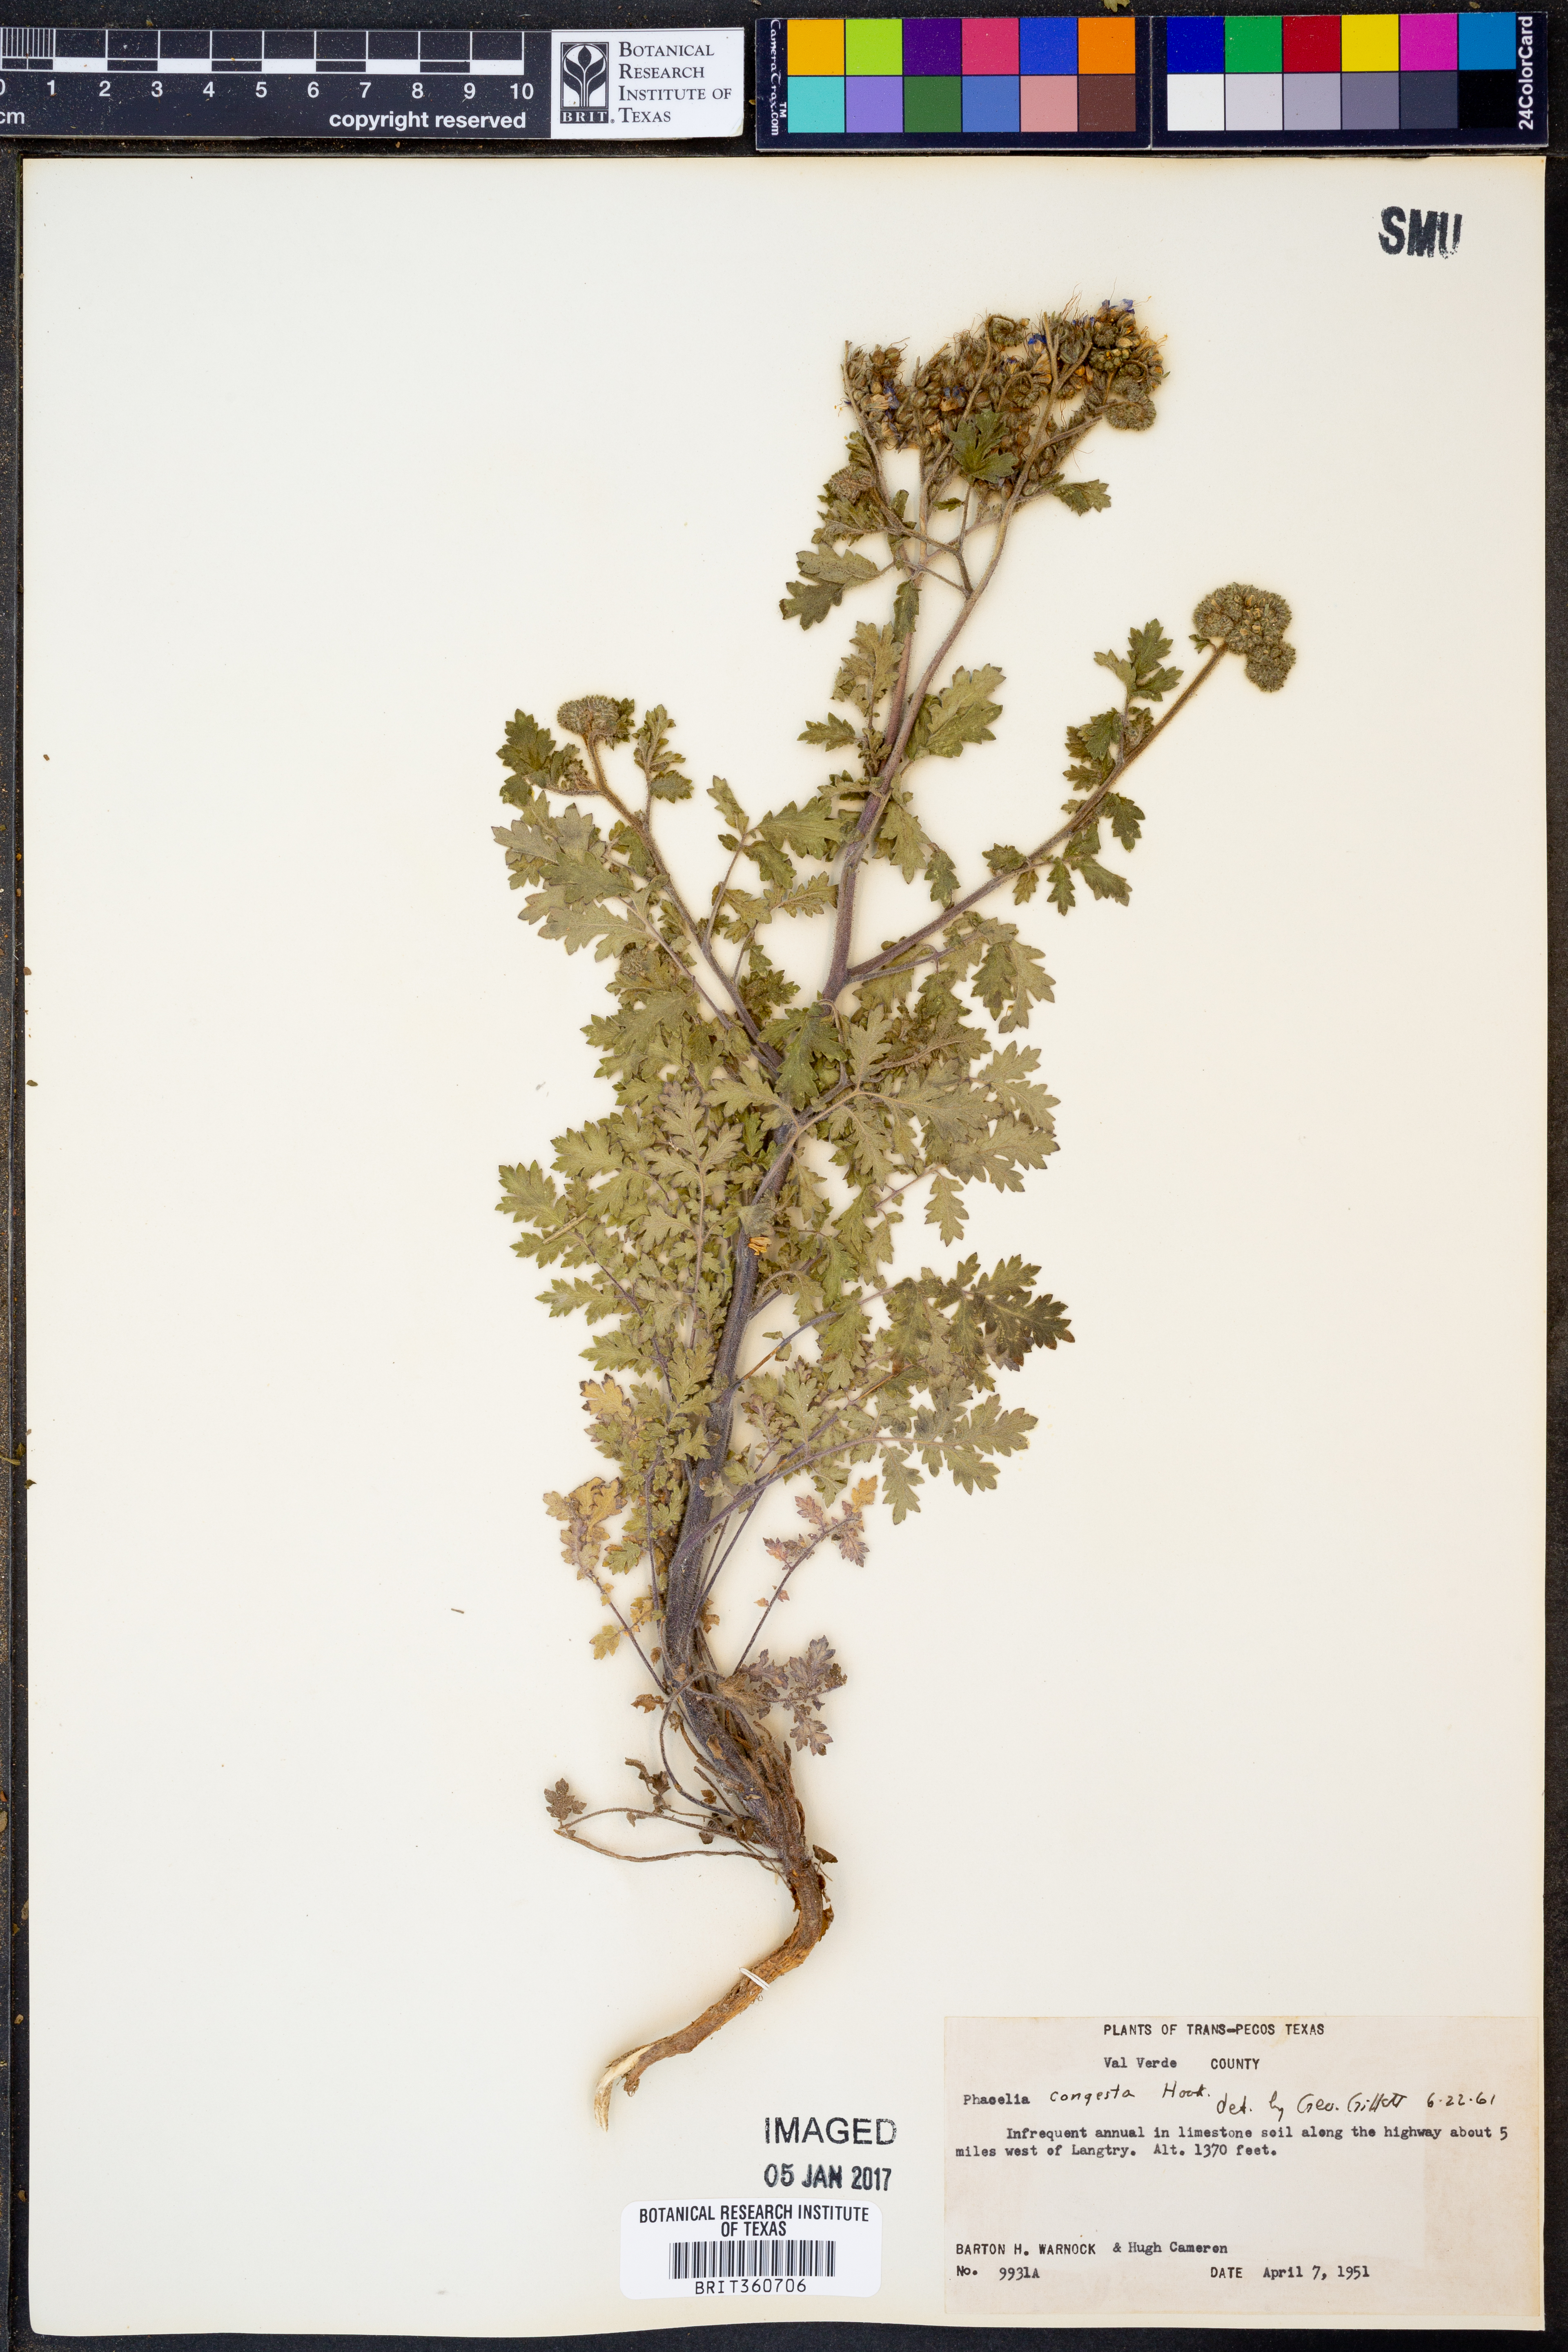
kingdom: Plantae
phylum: Tracheophyta
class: Magnoliopsida
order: Boraginales
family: Hydrophyllaceae
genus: Phacelia
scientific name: Phacelia congesta
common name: Blue curls
